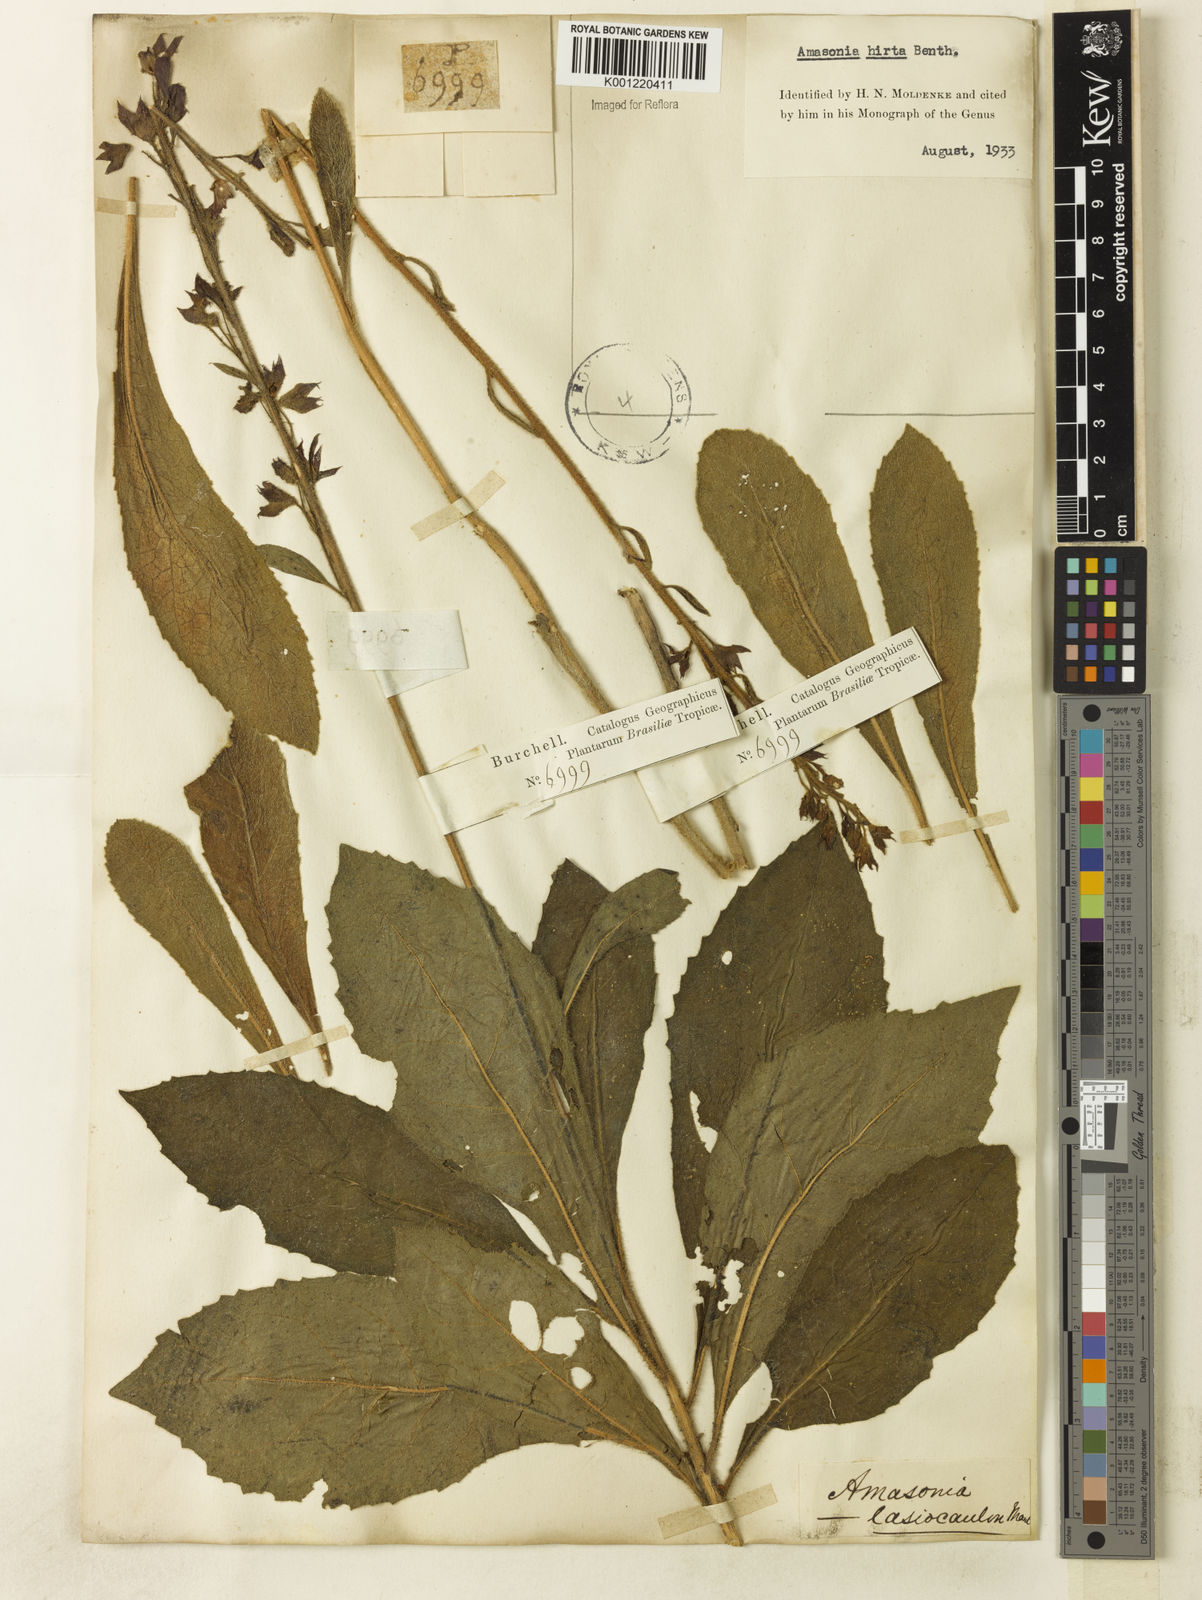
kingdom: Plantae
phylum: Tracheophyta
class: Magnoliopsida
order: Lamiales
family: Lamiaceae
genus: Amasonia
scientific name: Amasonia hirta
